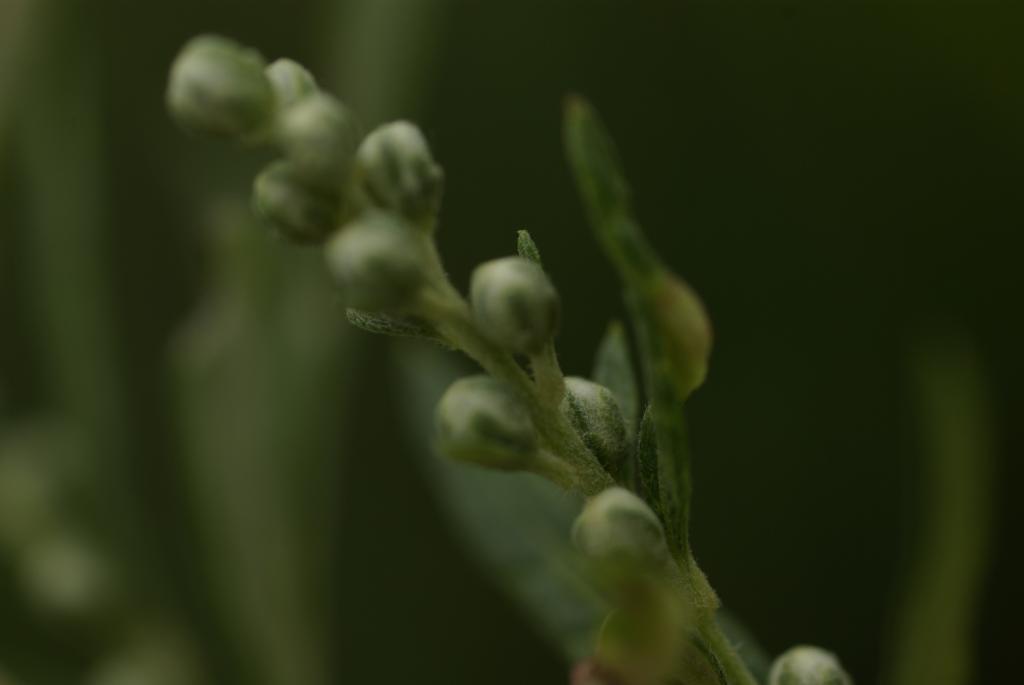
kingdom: Plantae
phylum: Tracheophyta
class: Magnoliopsida
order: Asterales
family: Asteraceae
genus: Artemisia
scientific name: Artemisia indica
